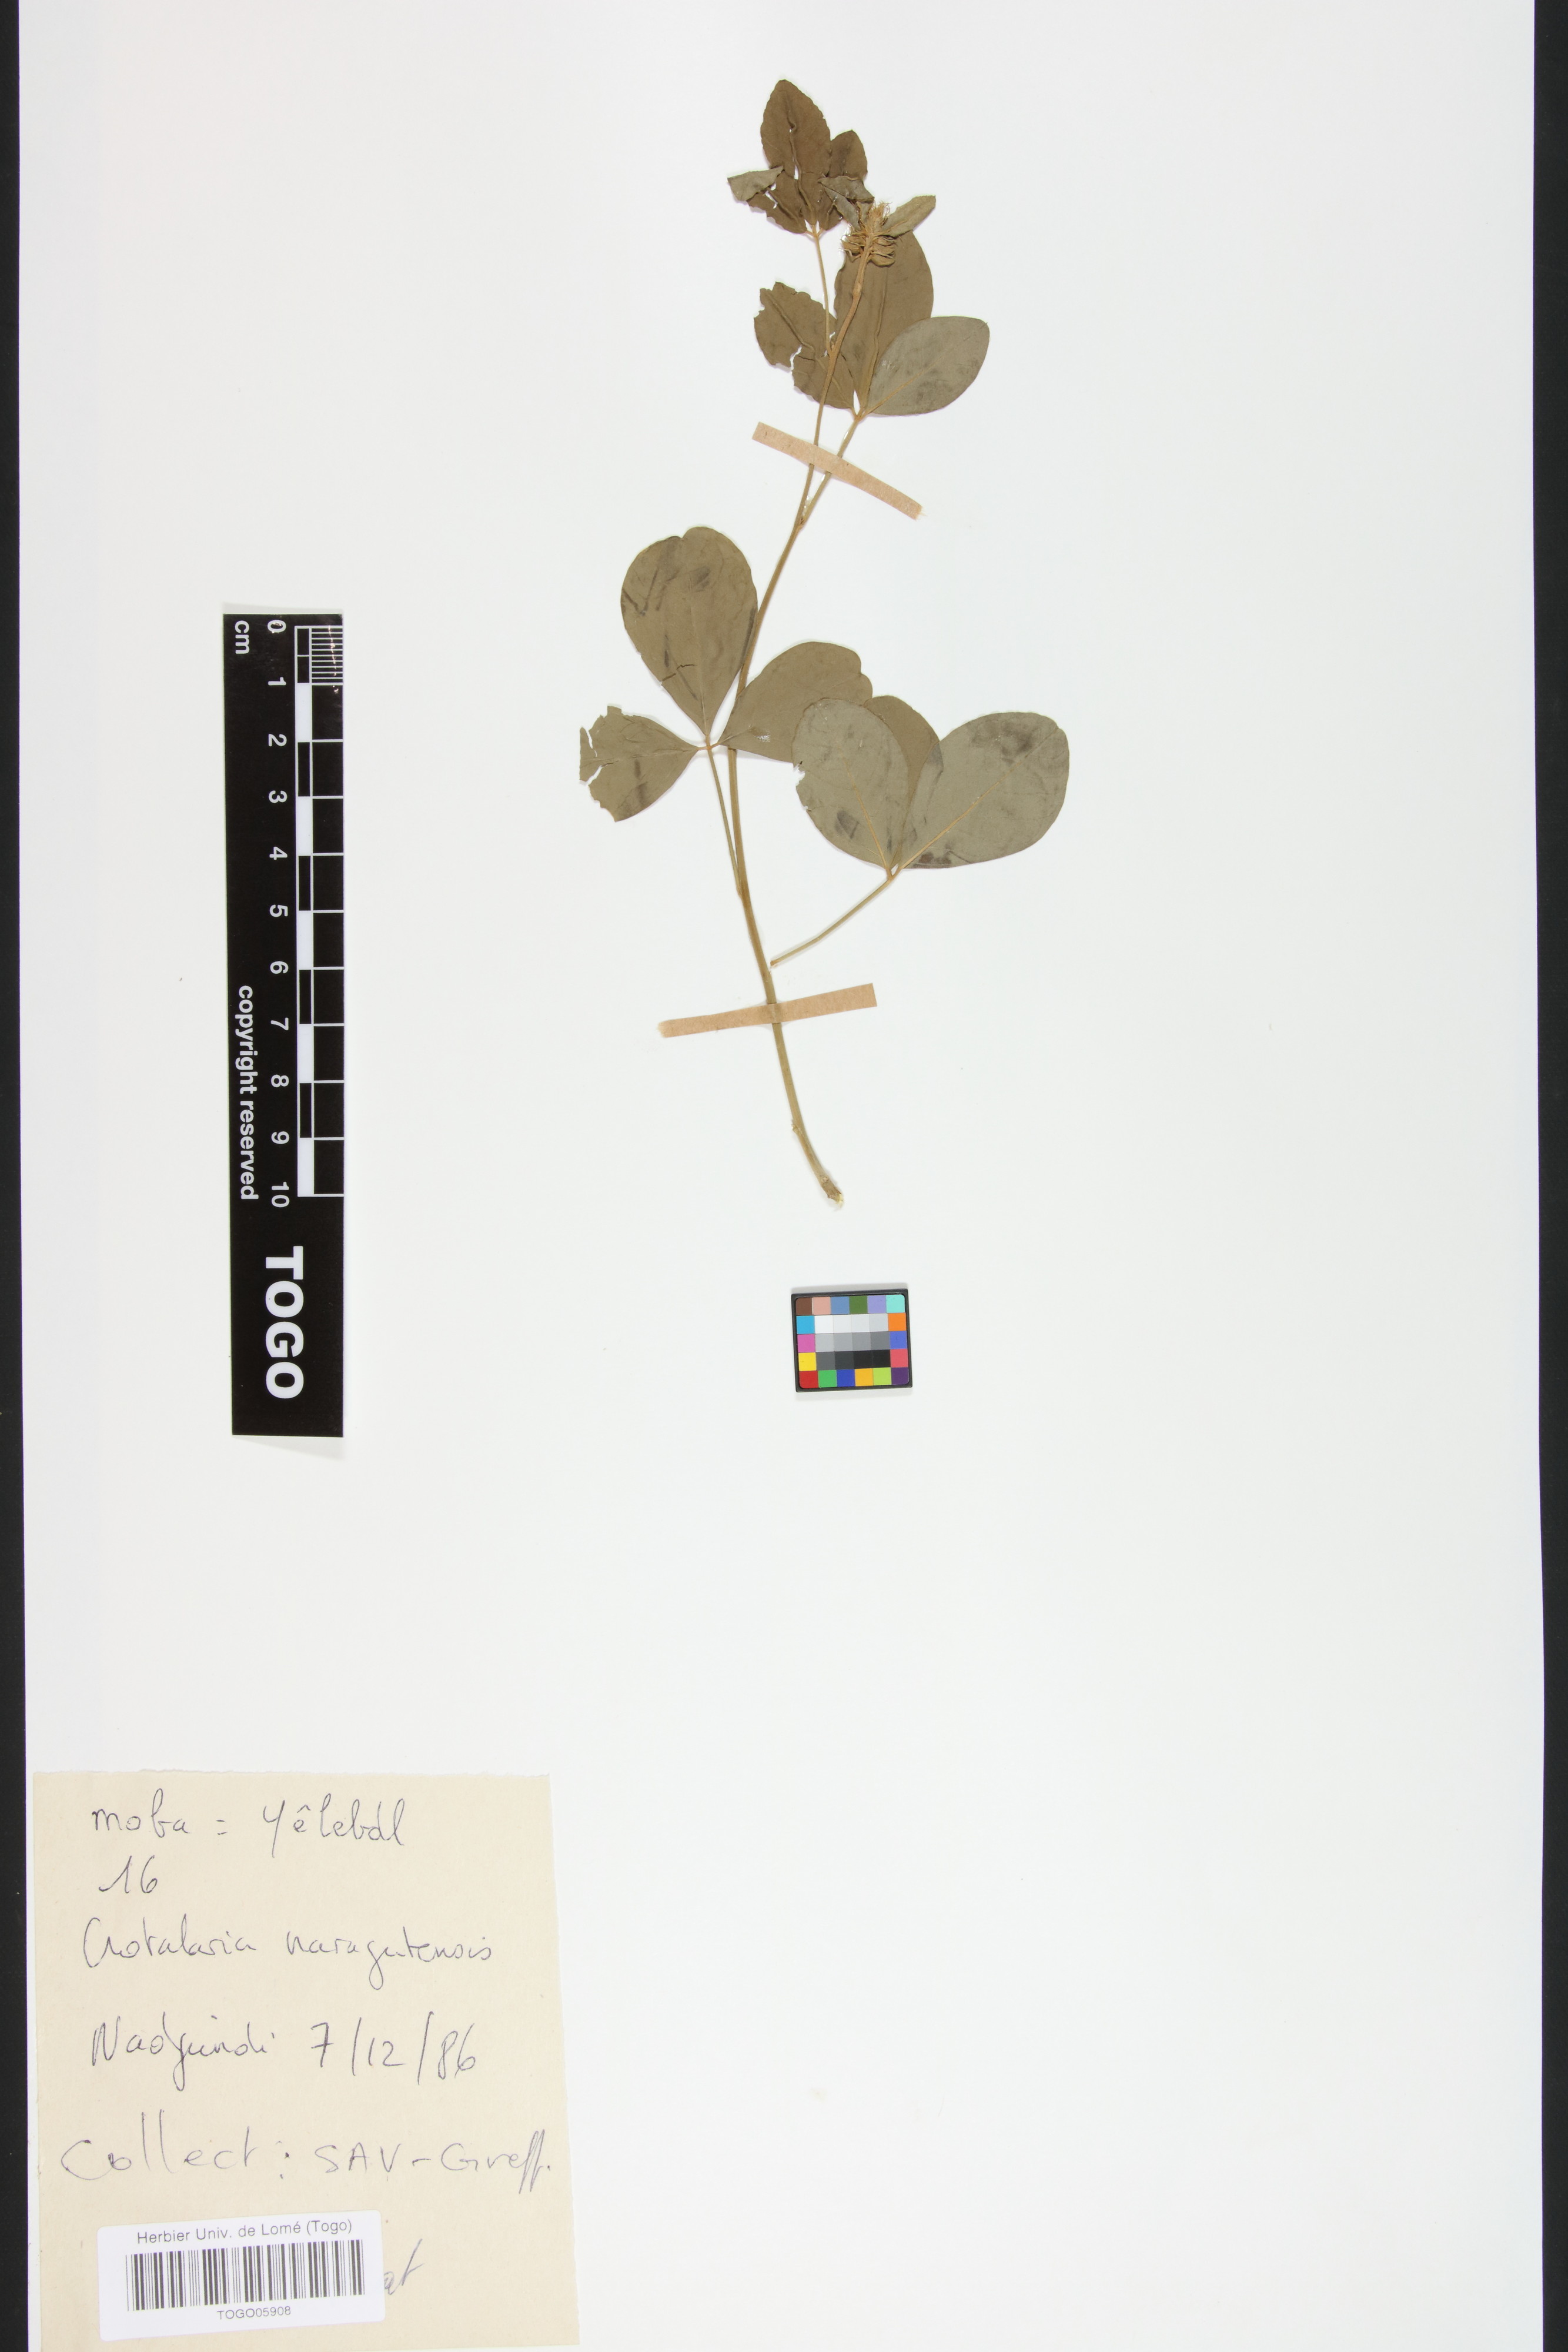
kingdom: Plantae
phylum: Tracheophyta
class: Magnoliopsida
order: Fabales
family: Fabaceae
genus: Crotalaria
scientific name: Crotalaria naragutensis
